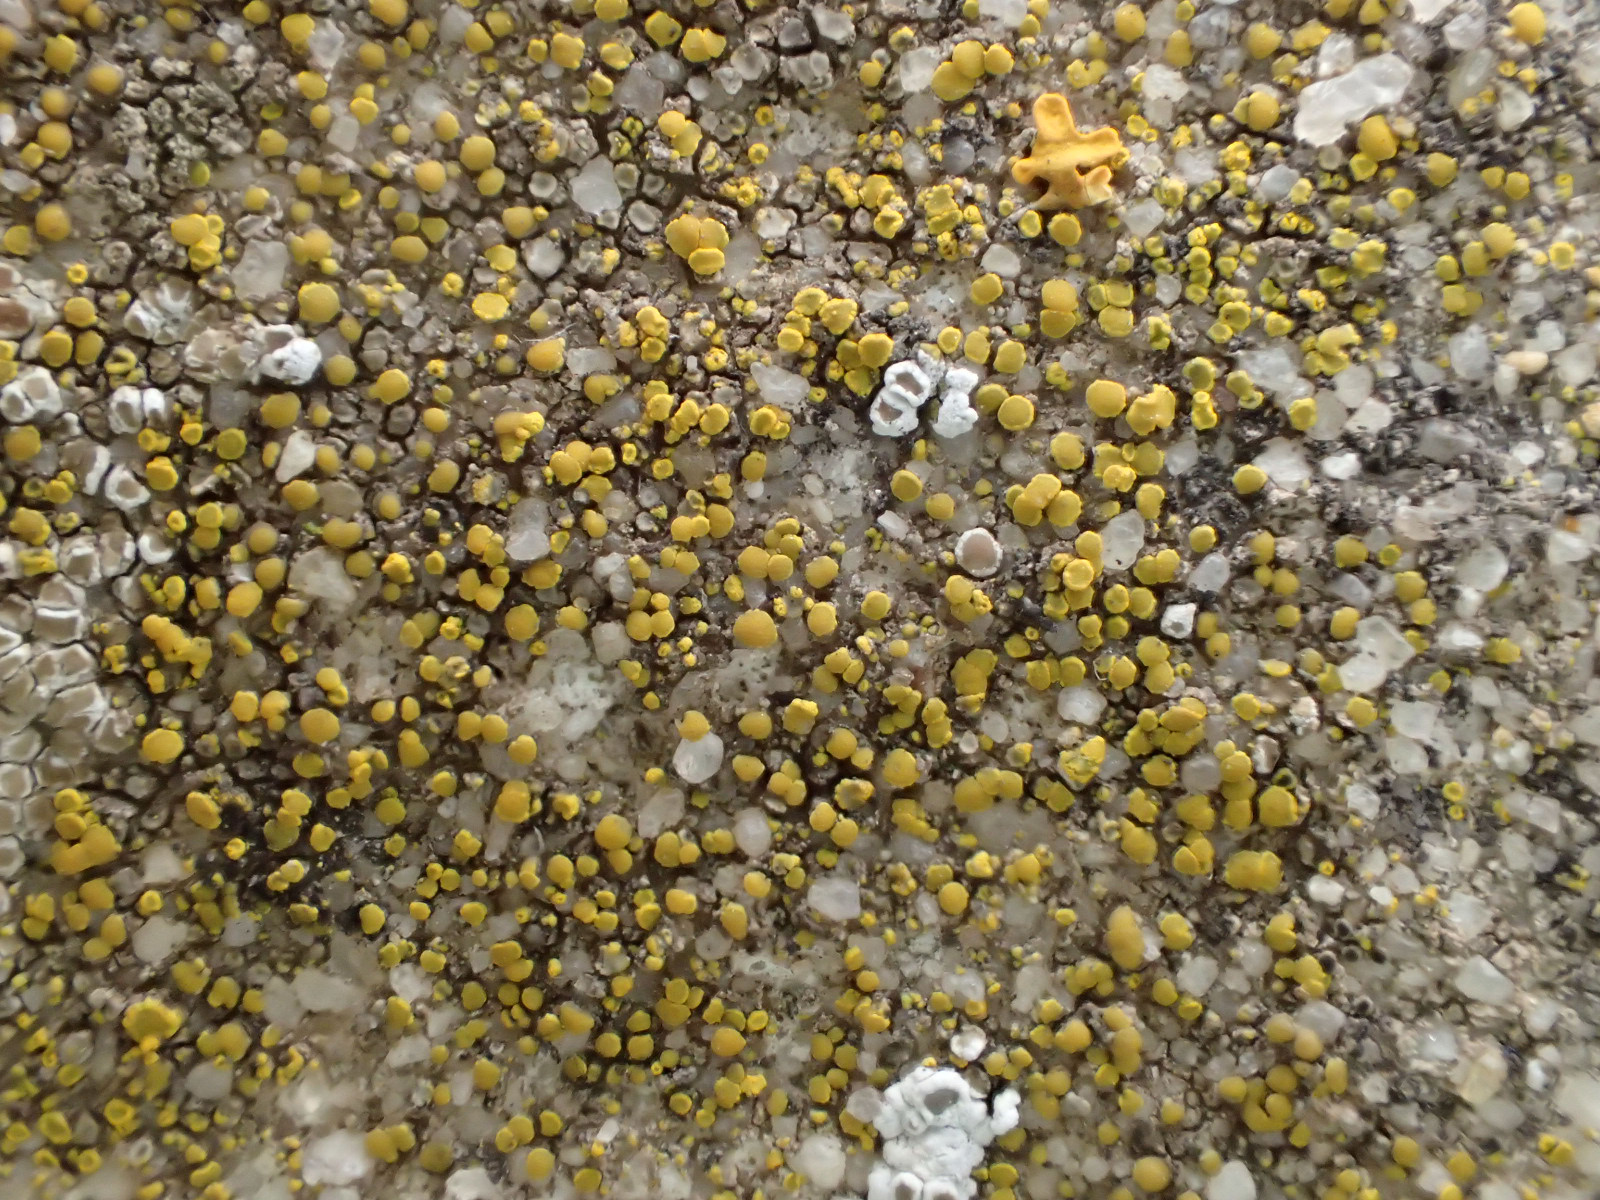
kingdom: Fungi
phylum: Ascomycota
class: Candelariomycetes
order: Candelariales
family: Candelariaceae
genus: Candelariella
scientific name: Candelariella aurella
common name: liden æggeblommelav
